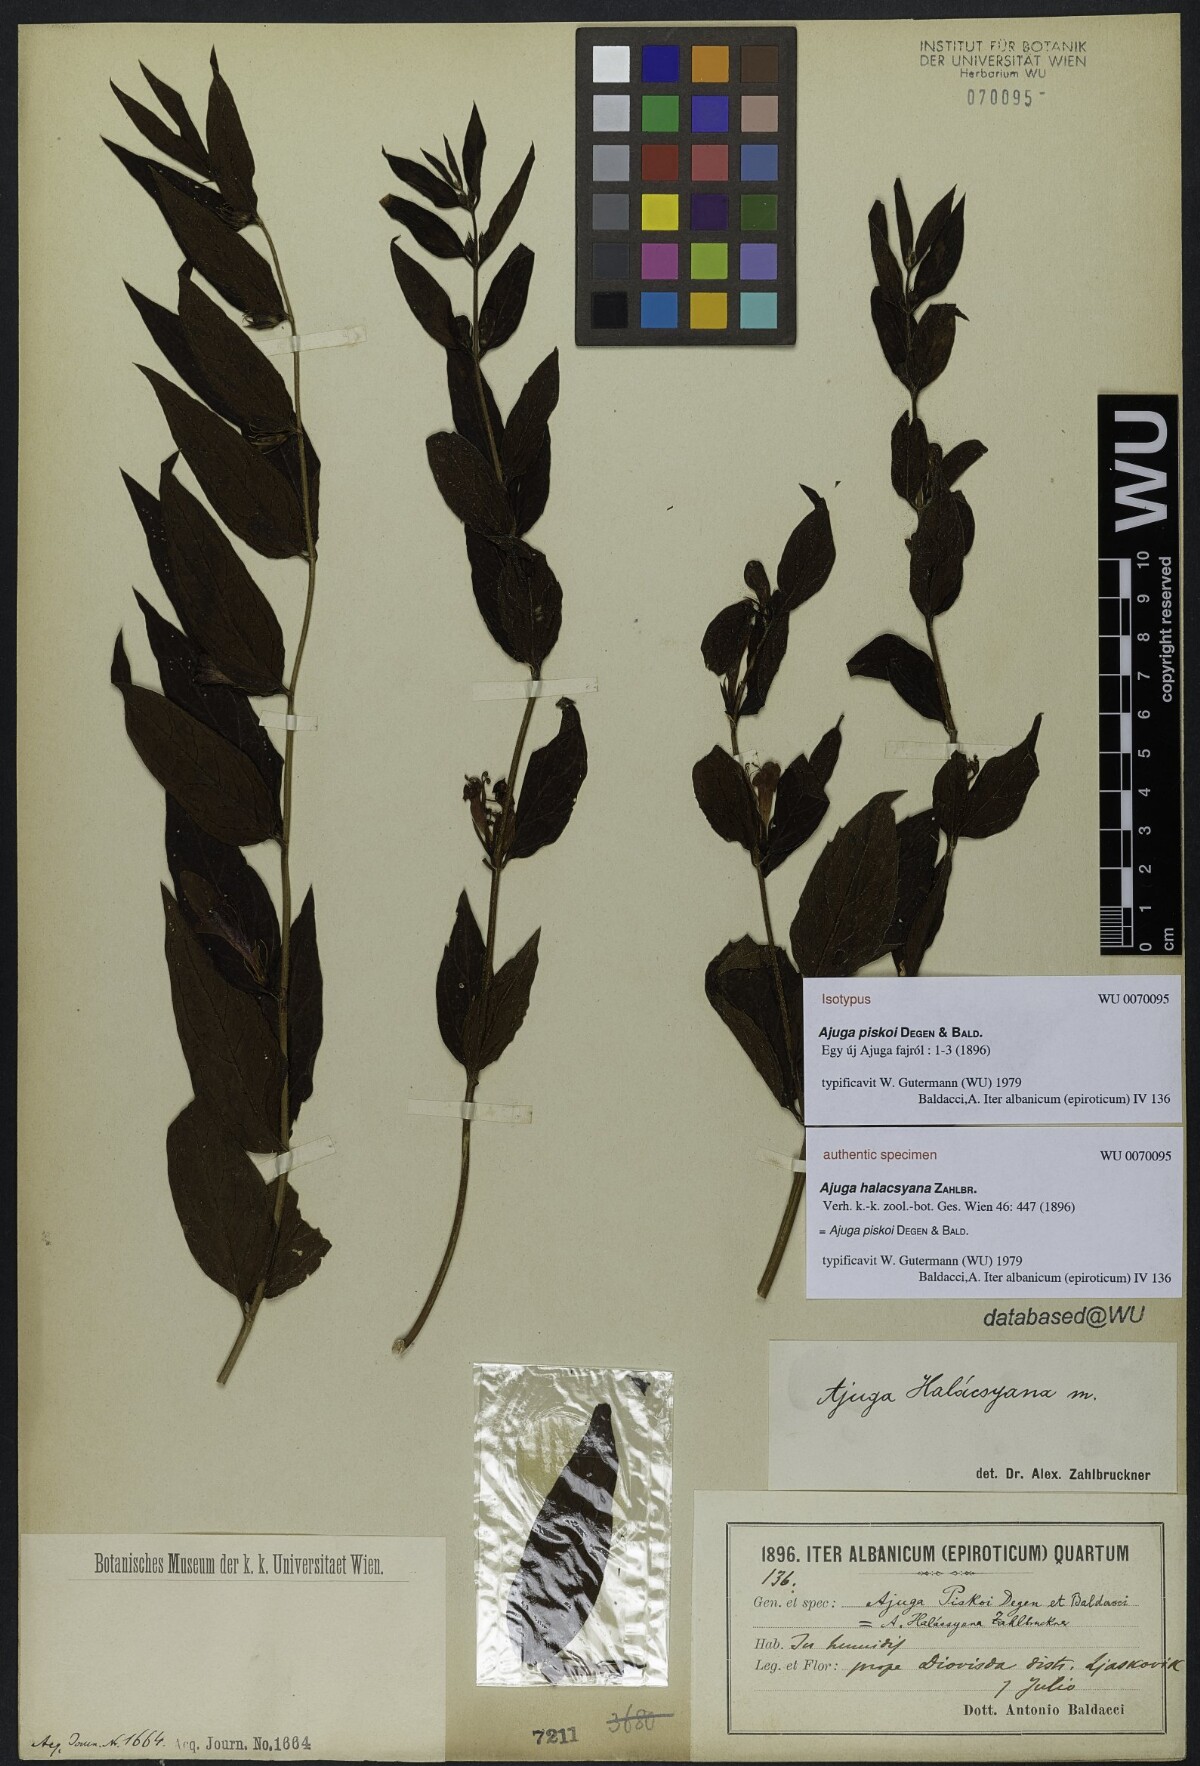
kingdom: Plantae
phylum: Tracheophyta
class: Magnoliopsida
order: Lamiales
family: Lamiaceae
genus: Ajuga
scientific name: Ajuga piskoi
